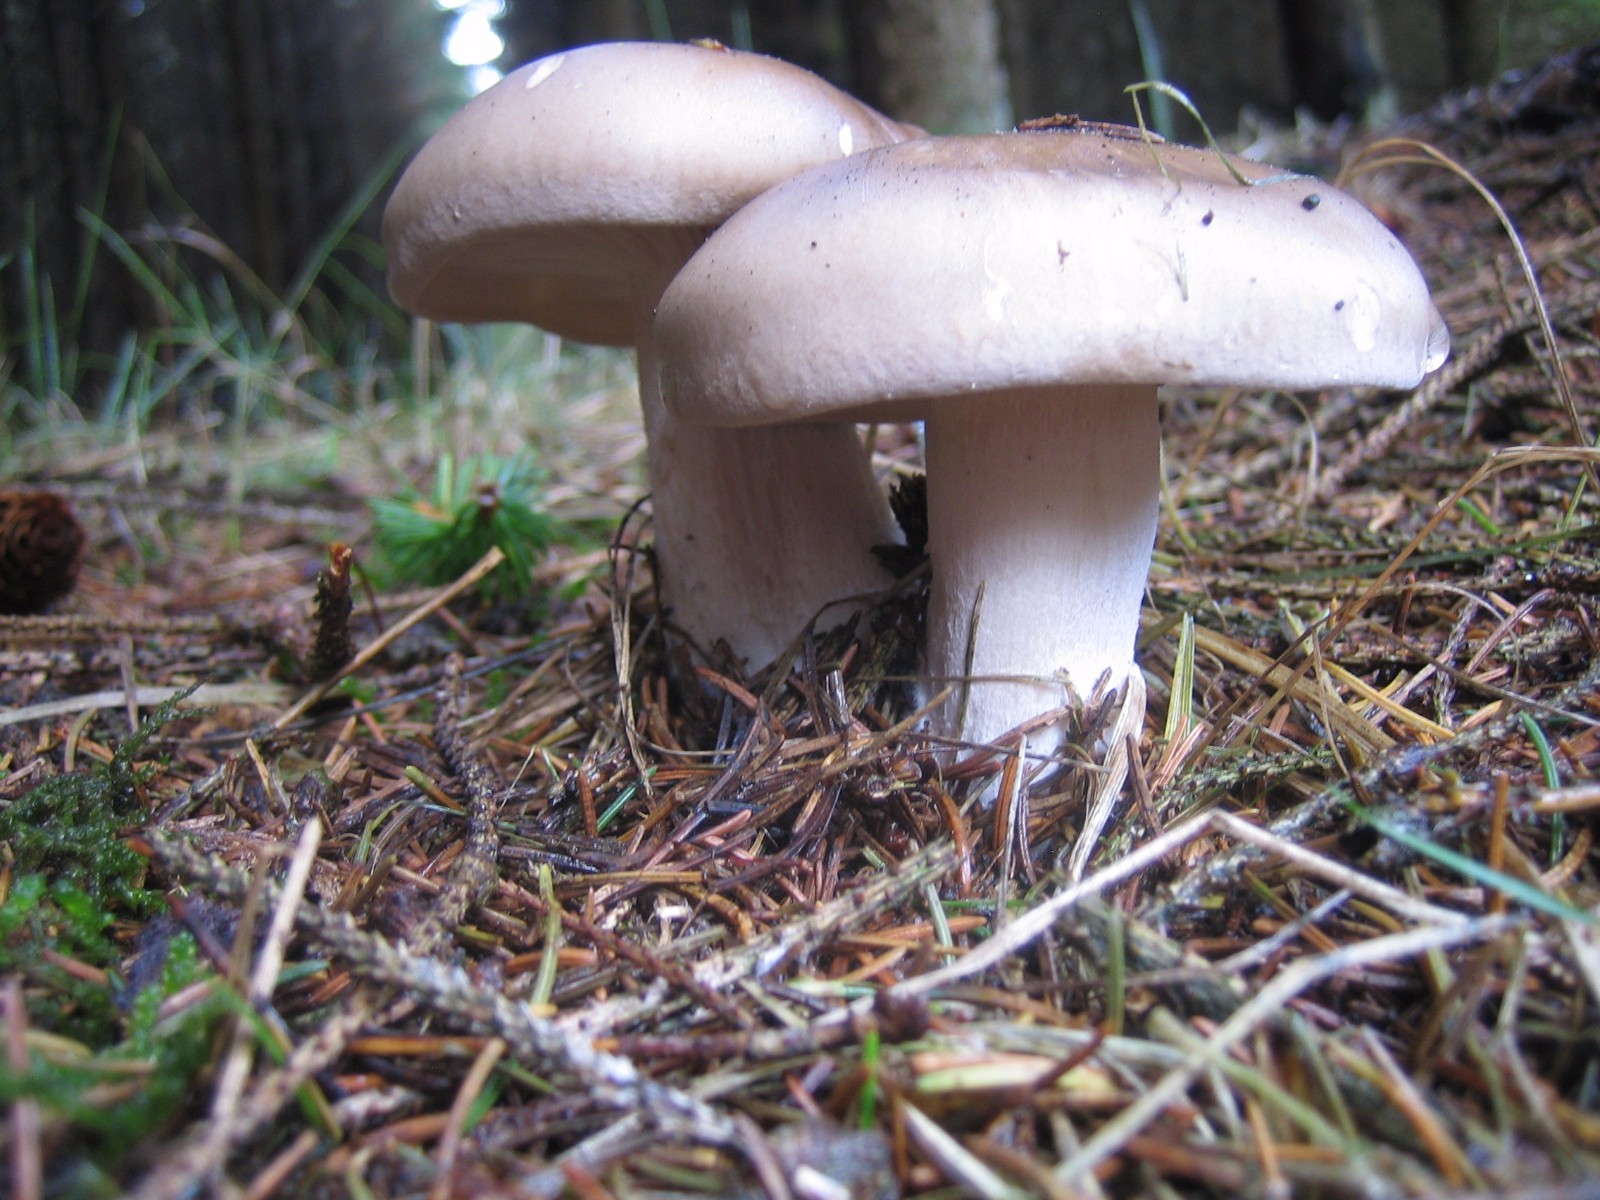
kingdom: Fungi
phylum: Basidiomycota
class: Agaricomycetes
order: Agaricales
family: Tricholomataceae
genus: Clitocybe
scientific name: Clitocybe nebularis
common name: tåge-tragthat
